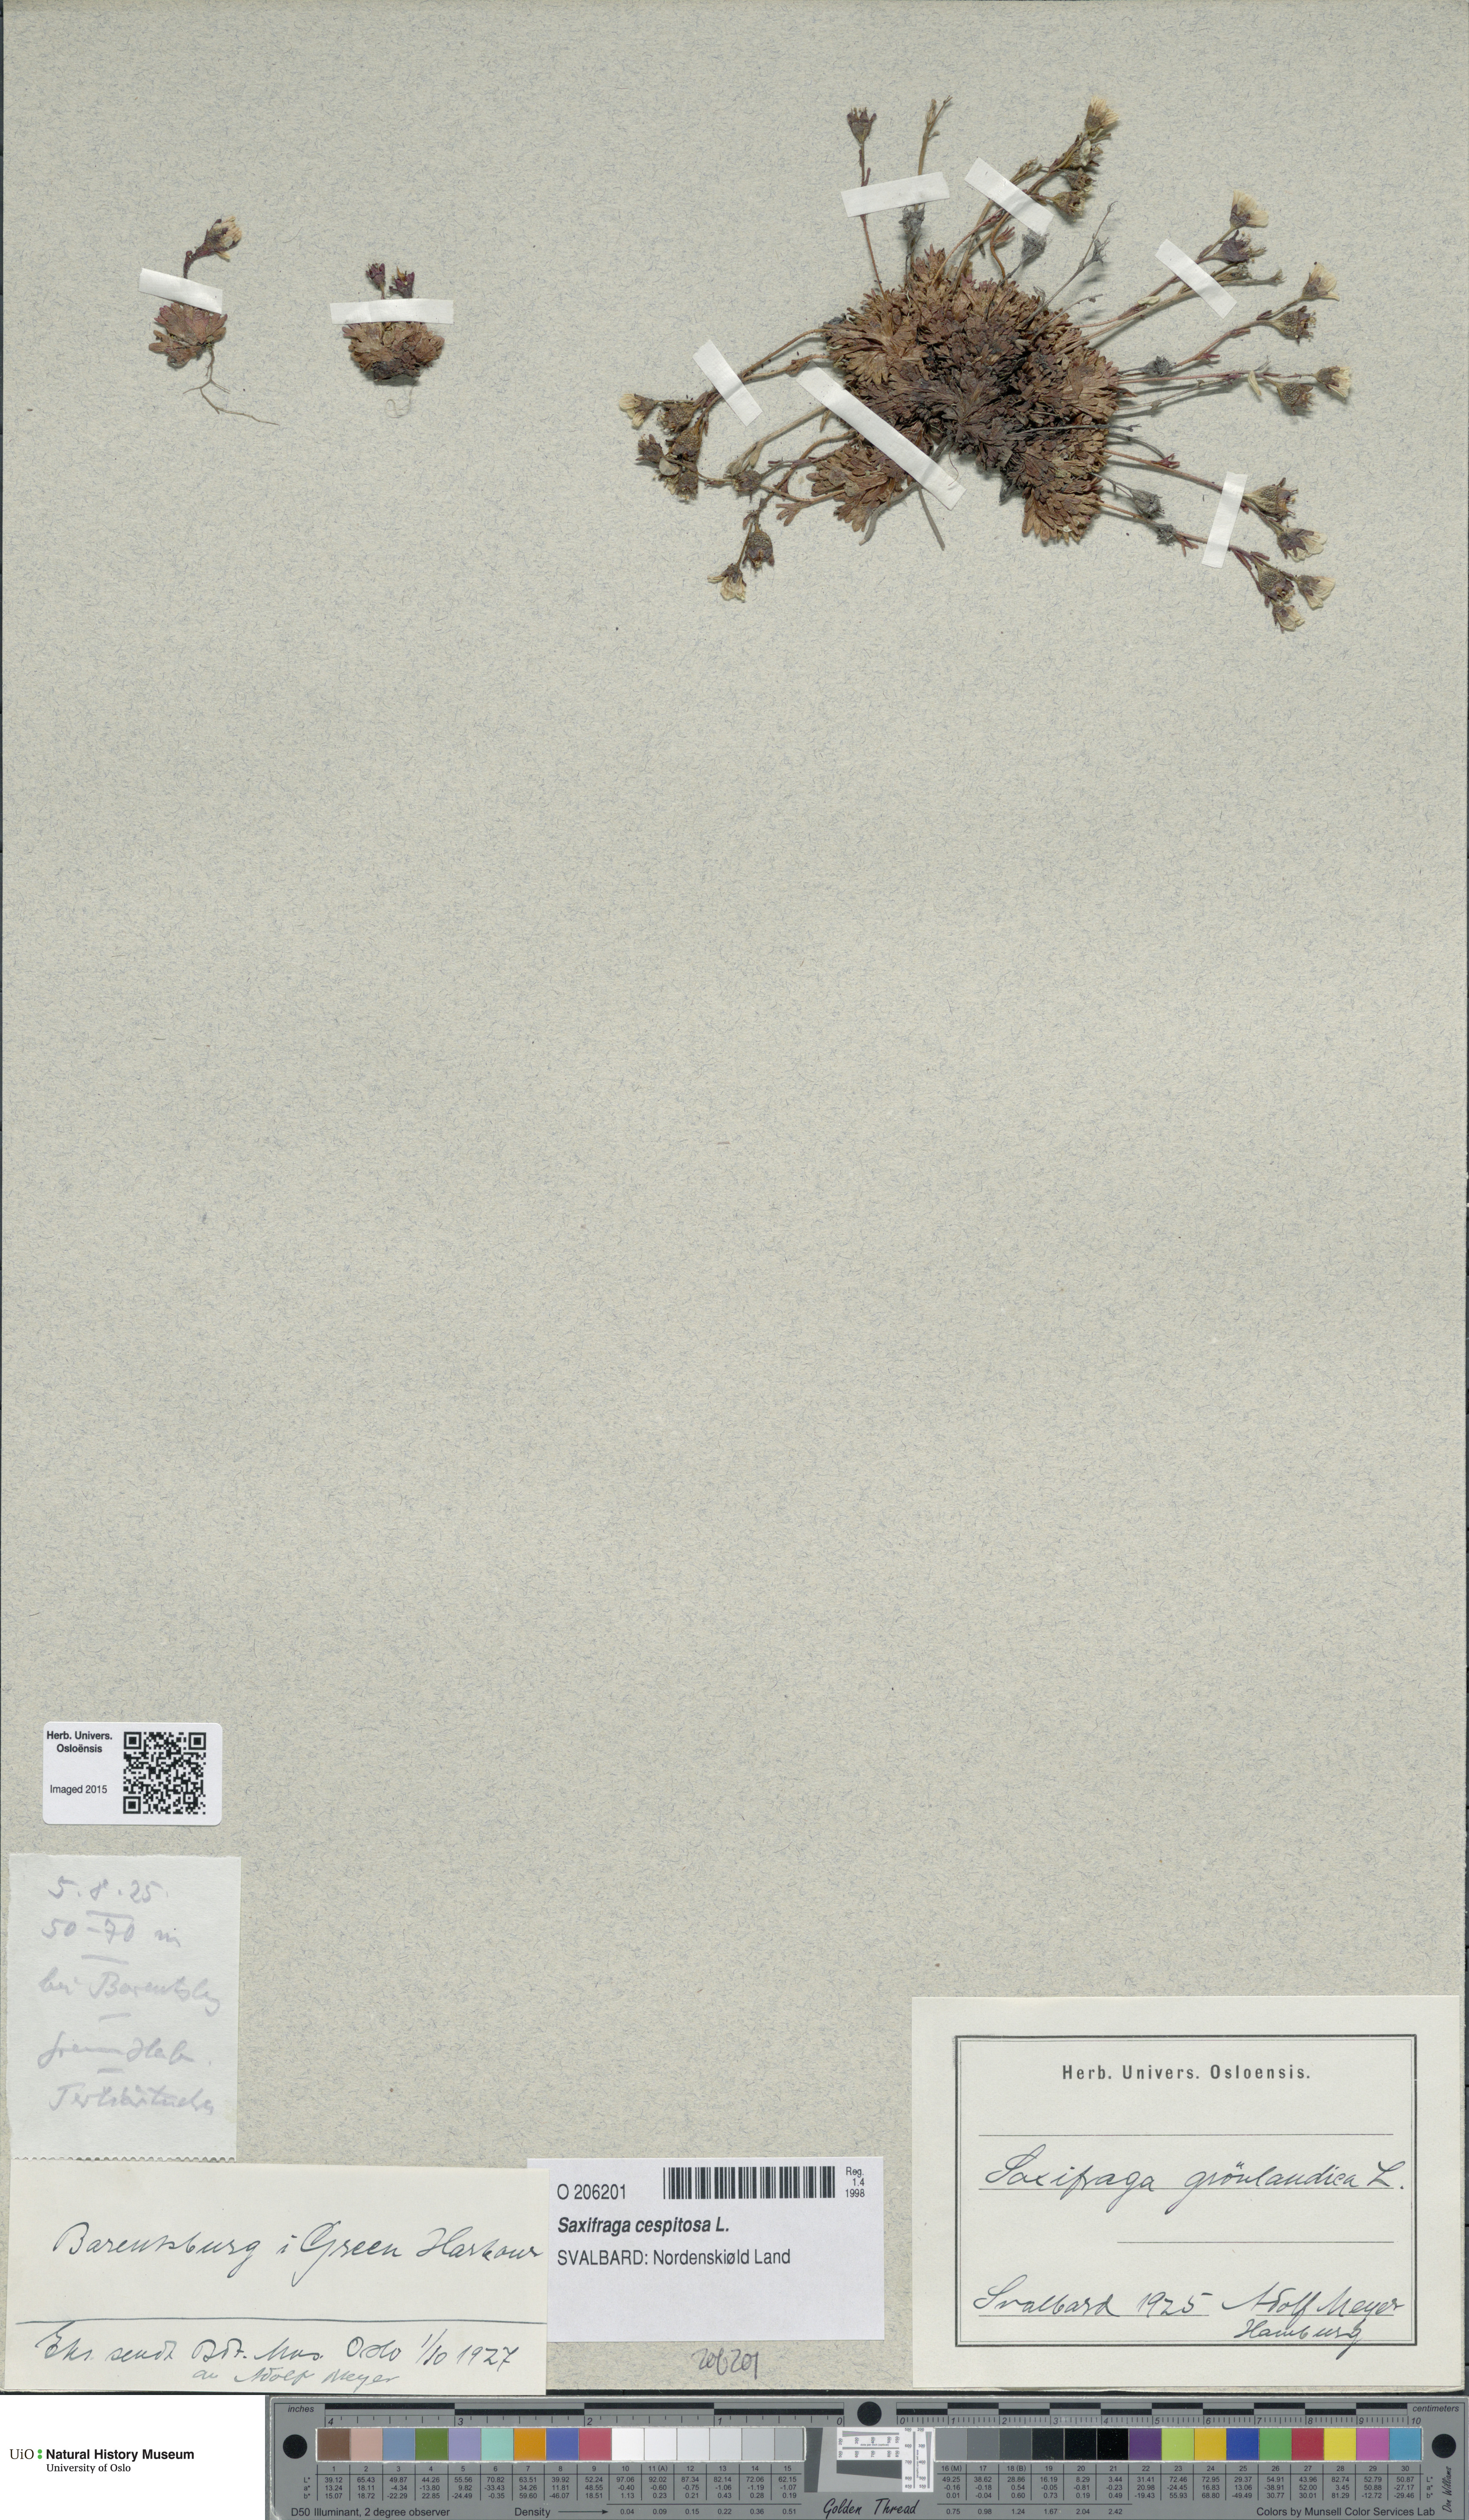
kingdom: Plantae
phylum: Tracheophyta
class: Magnoliopsida
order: Saxifragales
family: Saxifragaceae
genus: Saxifraga
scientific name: Saxifraga cespitosa
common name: Tufted saxifrage
